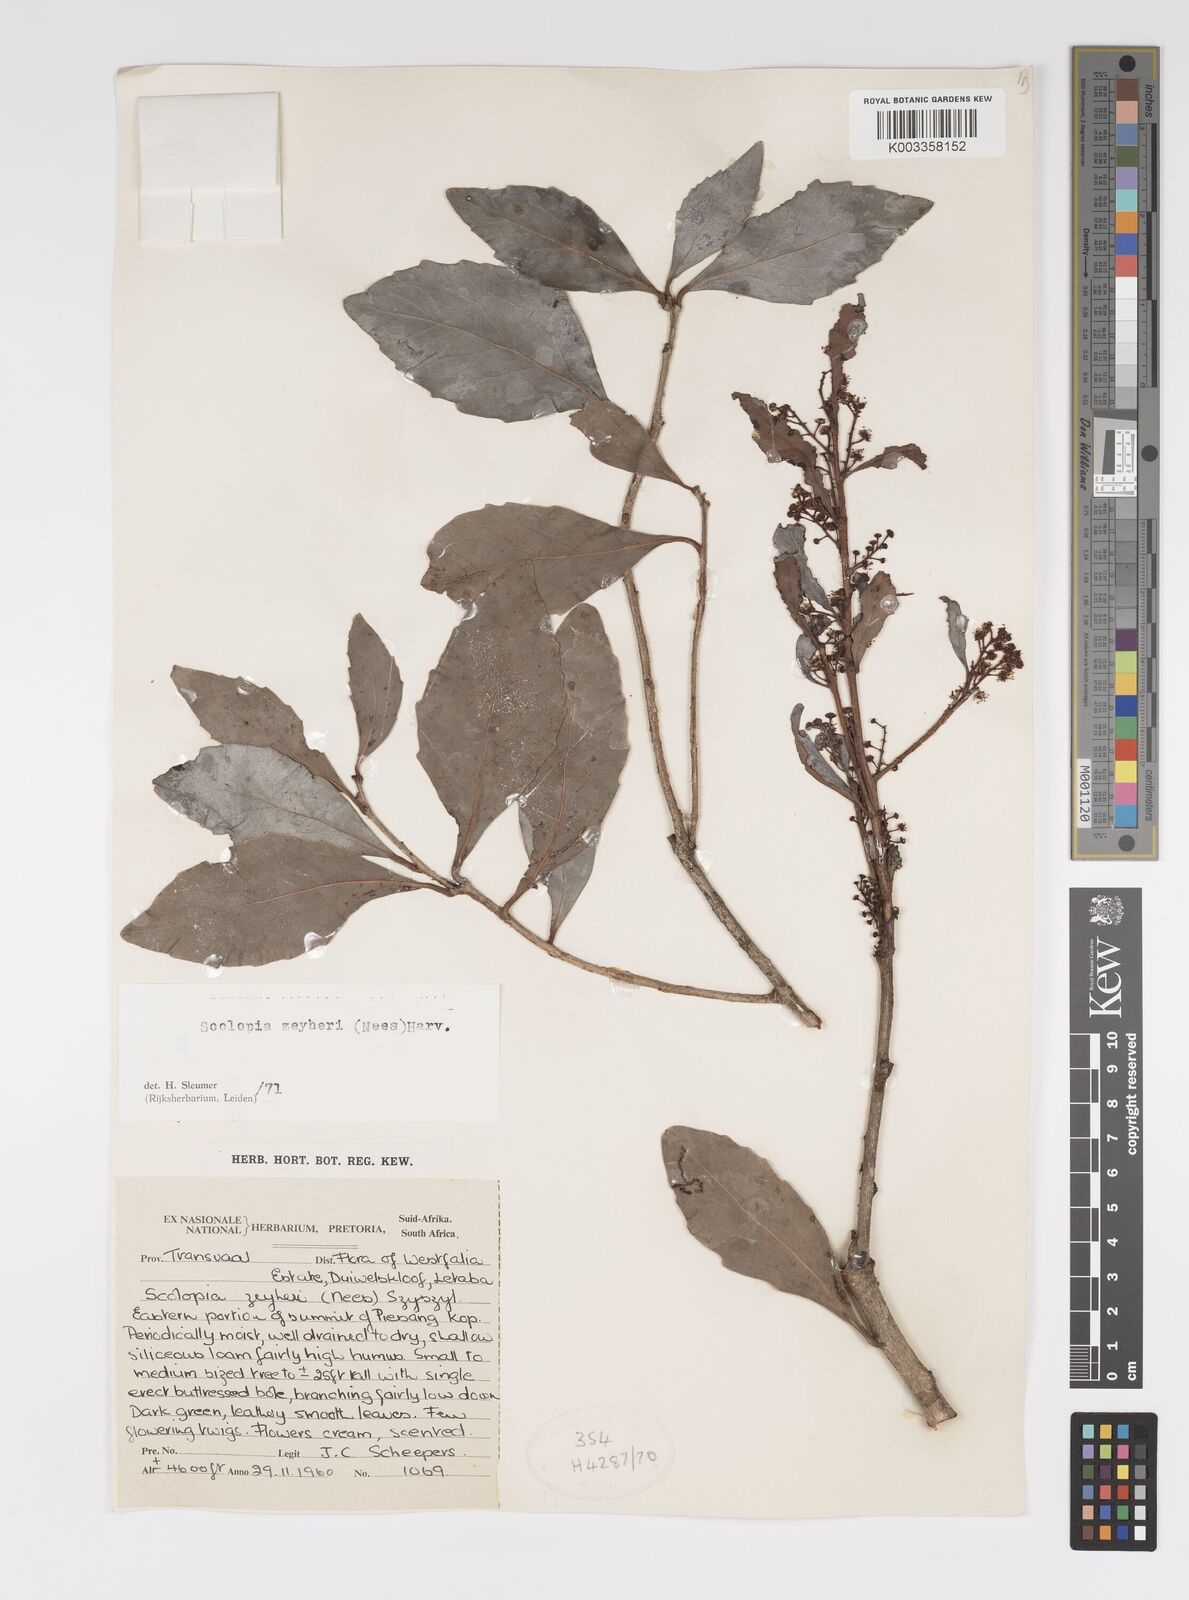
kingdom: Plantae
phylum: Tracheophyta
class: Magnoliopsida
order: Malpighiales
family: Salicaceae
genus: Scolopia
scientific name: Scolopia zeyheri
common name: Thorn pear
